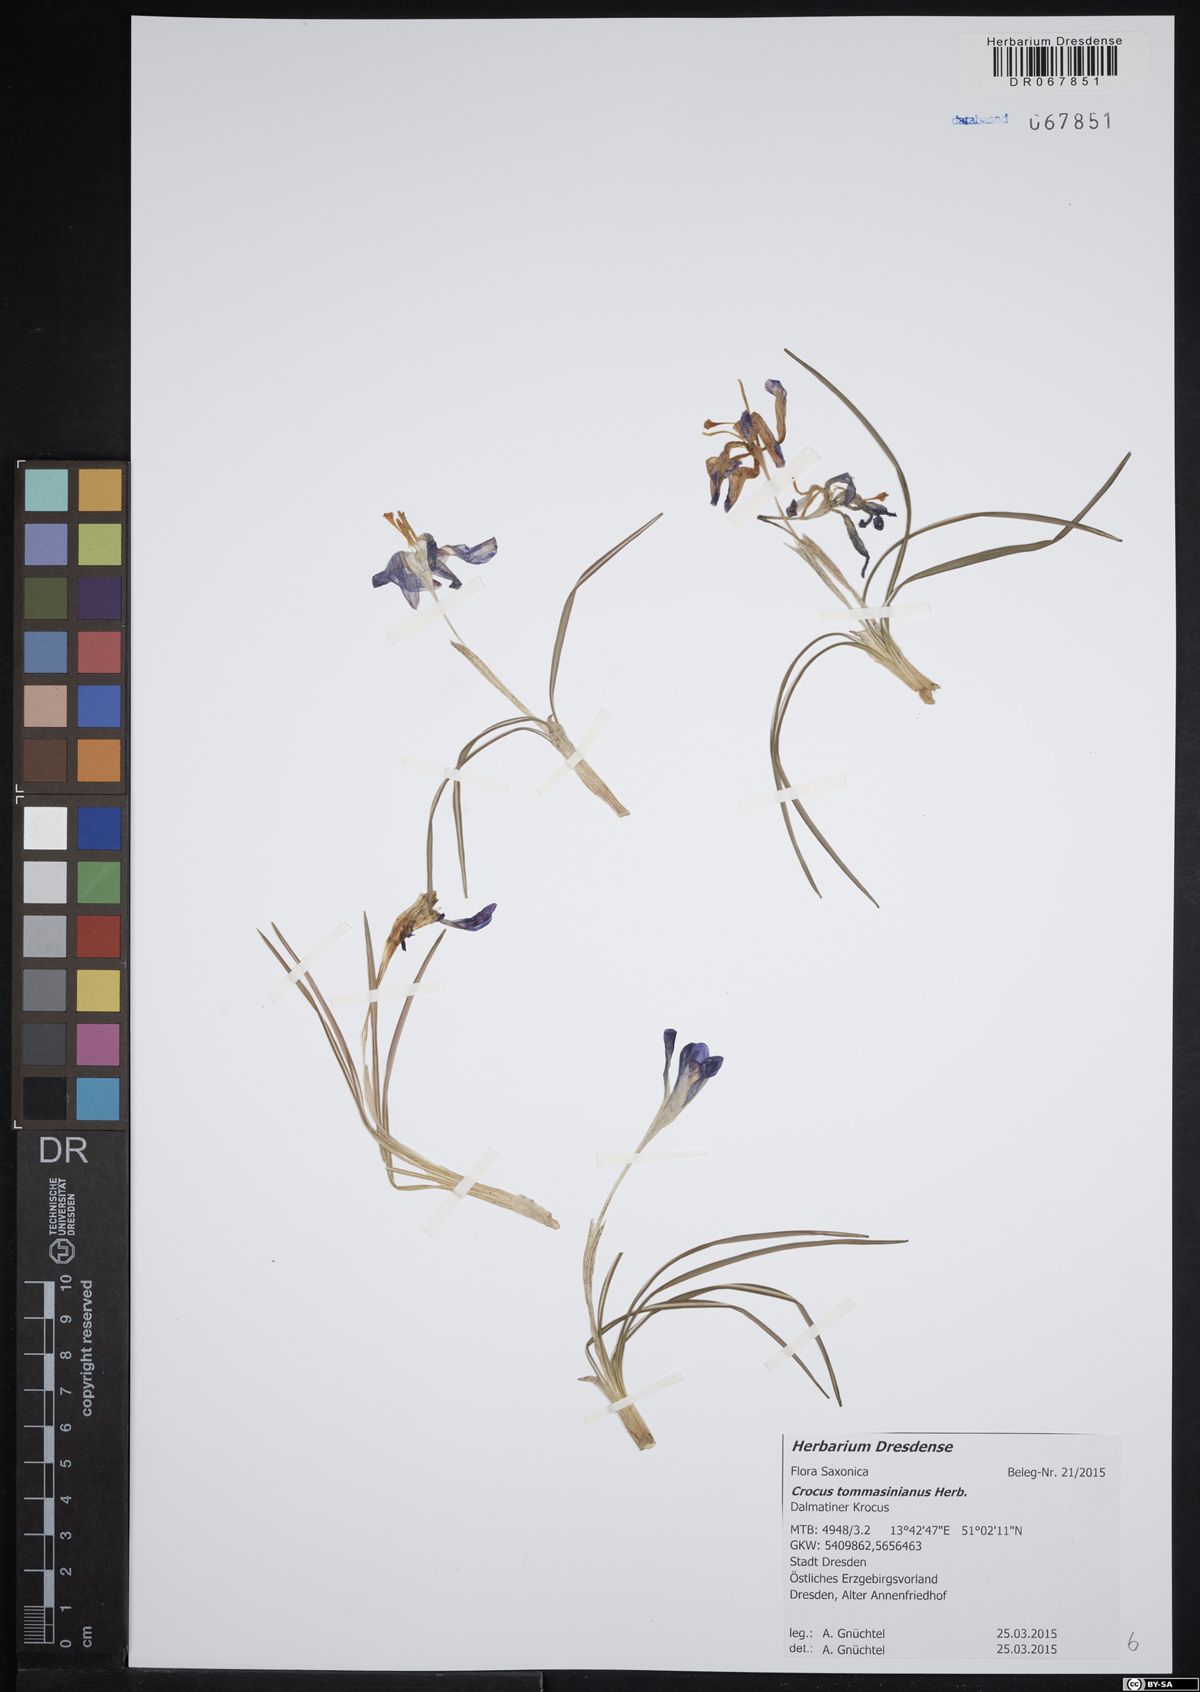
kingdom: Plantae
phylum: Tracheophyta
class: Liliopsida
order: Asparagales
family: Iridaceae
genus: Crocus
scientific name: Crocus tommasinianus
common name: Early crocus
